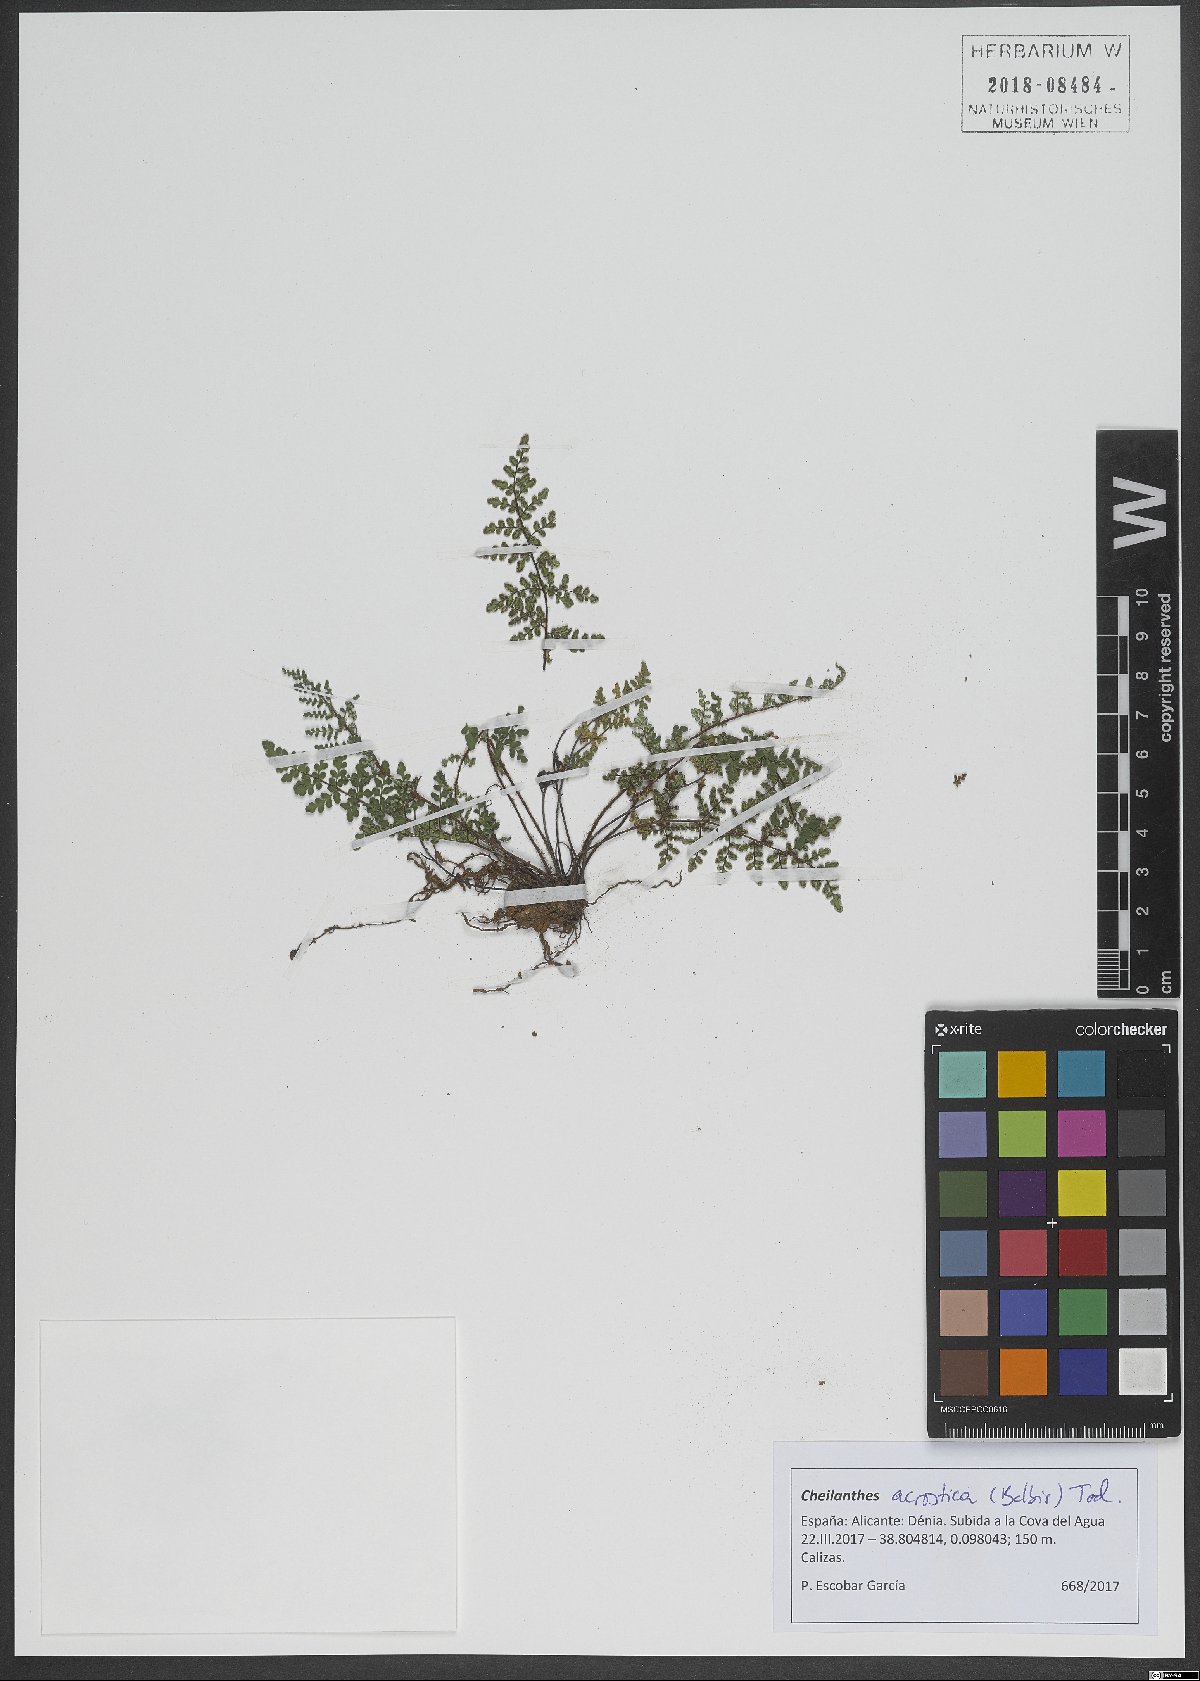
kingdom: Plantae
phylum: Tracheophyta
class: Polypodiopsida
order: Polypodiales
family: Pteridaceae
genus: Oeosporangium
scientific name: Oeosporangium pteridioides
